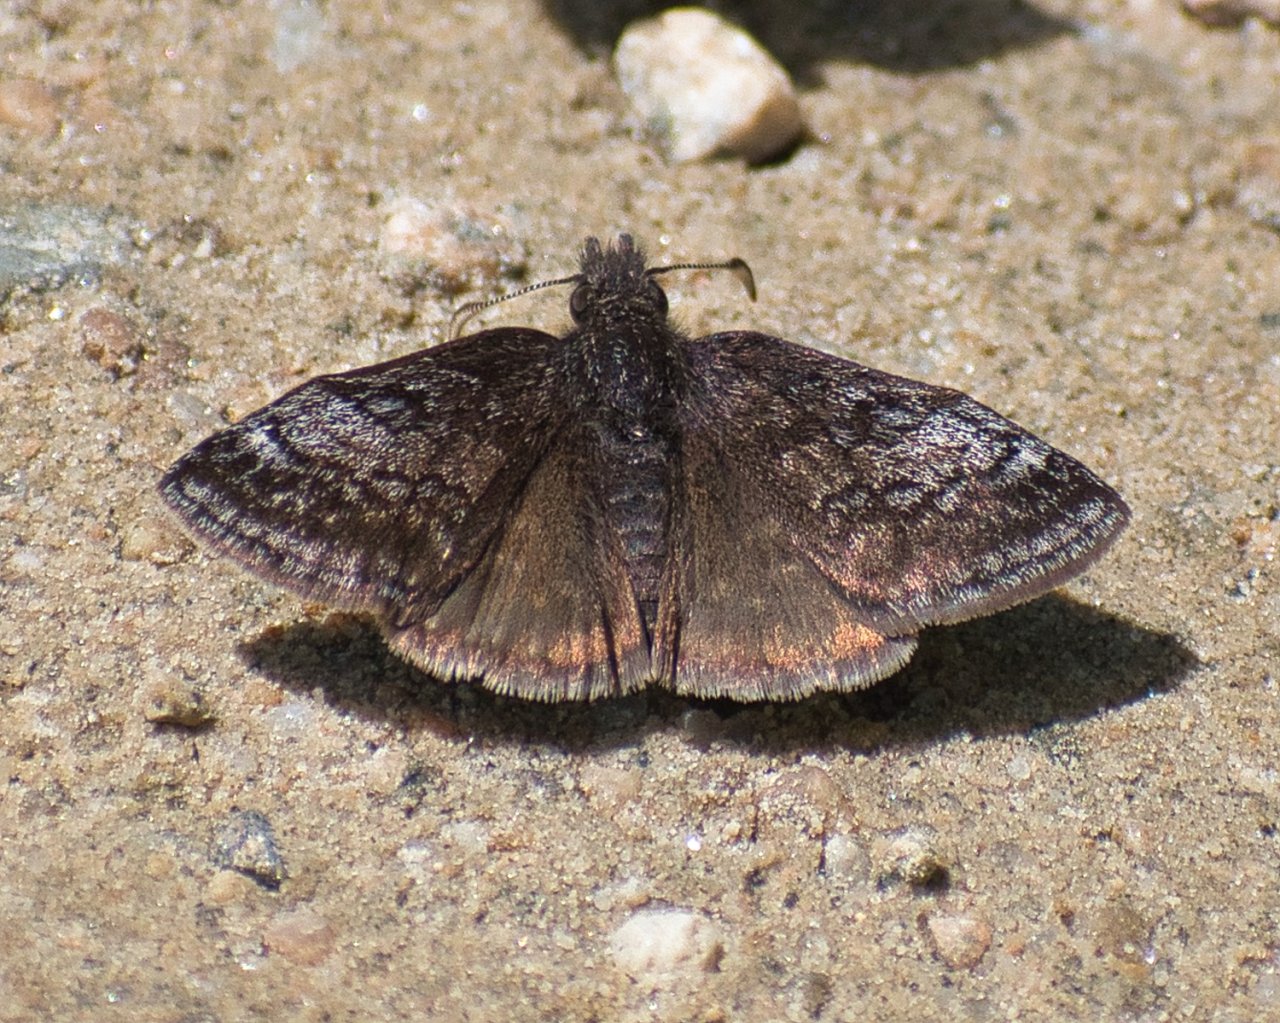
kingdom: Animalia
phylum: Arthropoda
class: Insecta
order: Lepidoptera
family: Hesperiidae
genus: Erynnis
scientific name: Erynnis icelus
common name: Dreamy Duskywing
